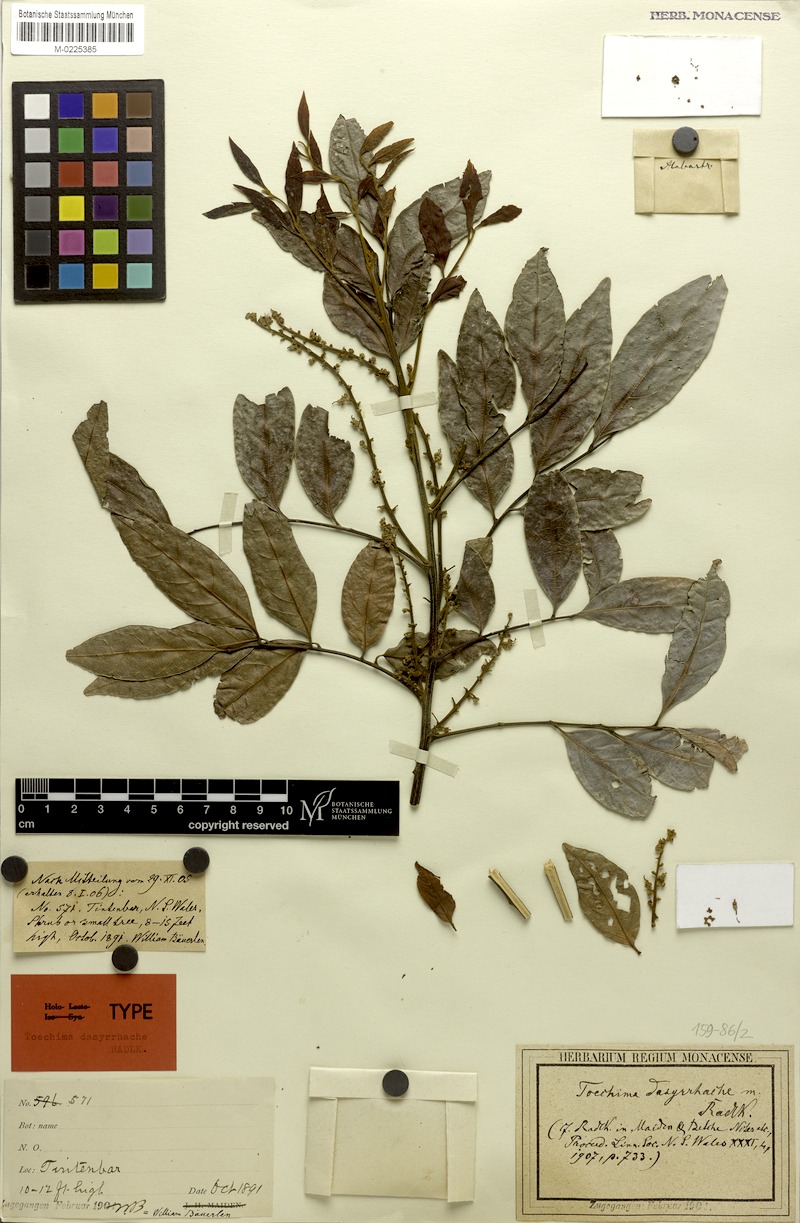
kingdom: Plantae
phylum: Tracheophyta
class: Magnoliopsida
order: Sapindales
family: Sapindaceae
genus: Toechima
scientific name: Toechima dasyrrhache
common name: Blunt-leaved steelwood
